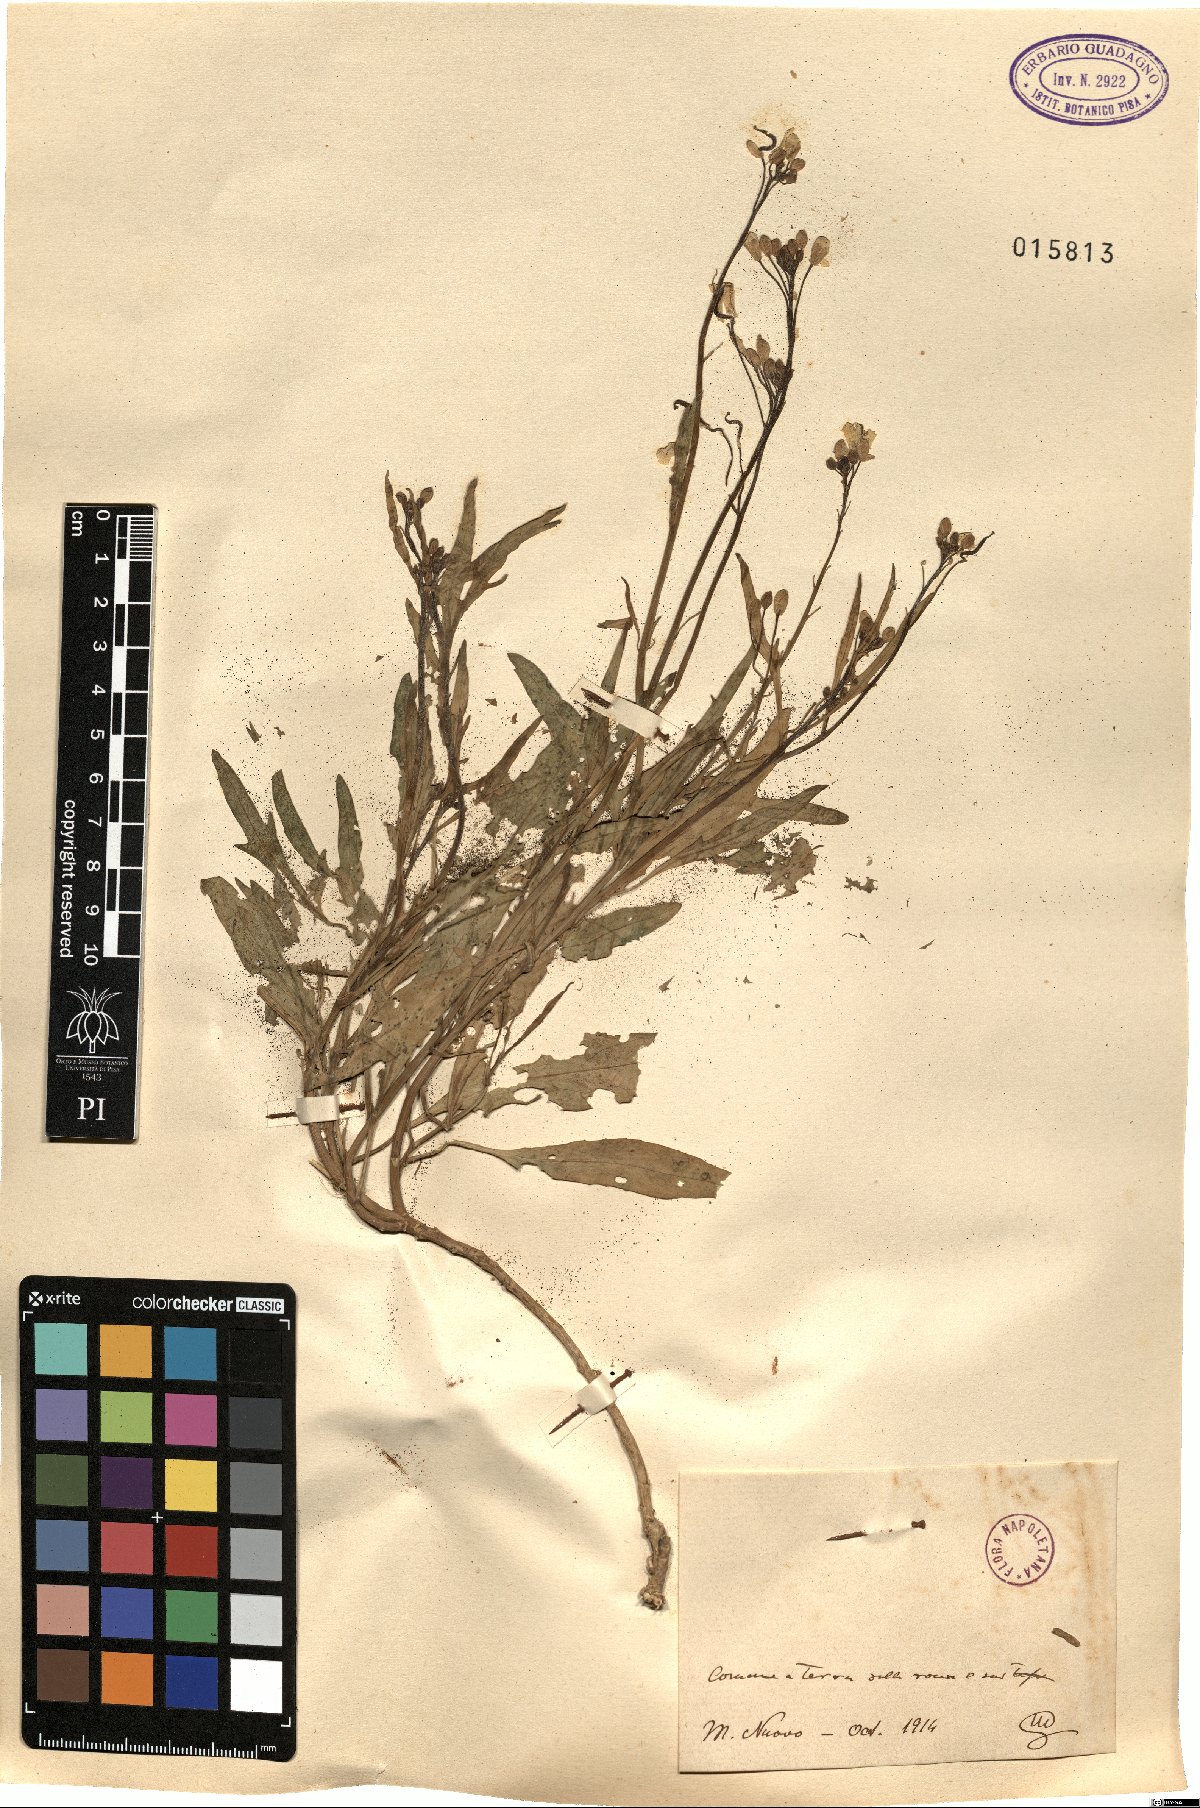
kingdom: Plantae
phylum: Tracheophyta
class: Magnoliopsida
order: Brassicales
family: Brassicaceae
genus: Diplotaxis
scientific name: Diplotaxis
